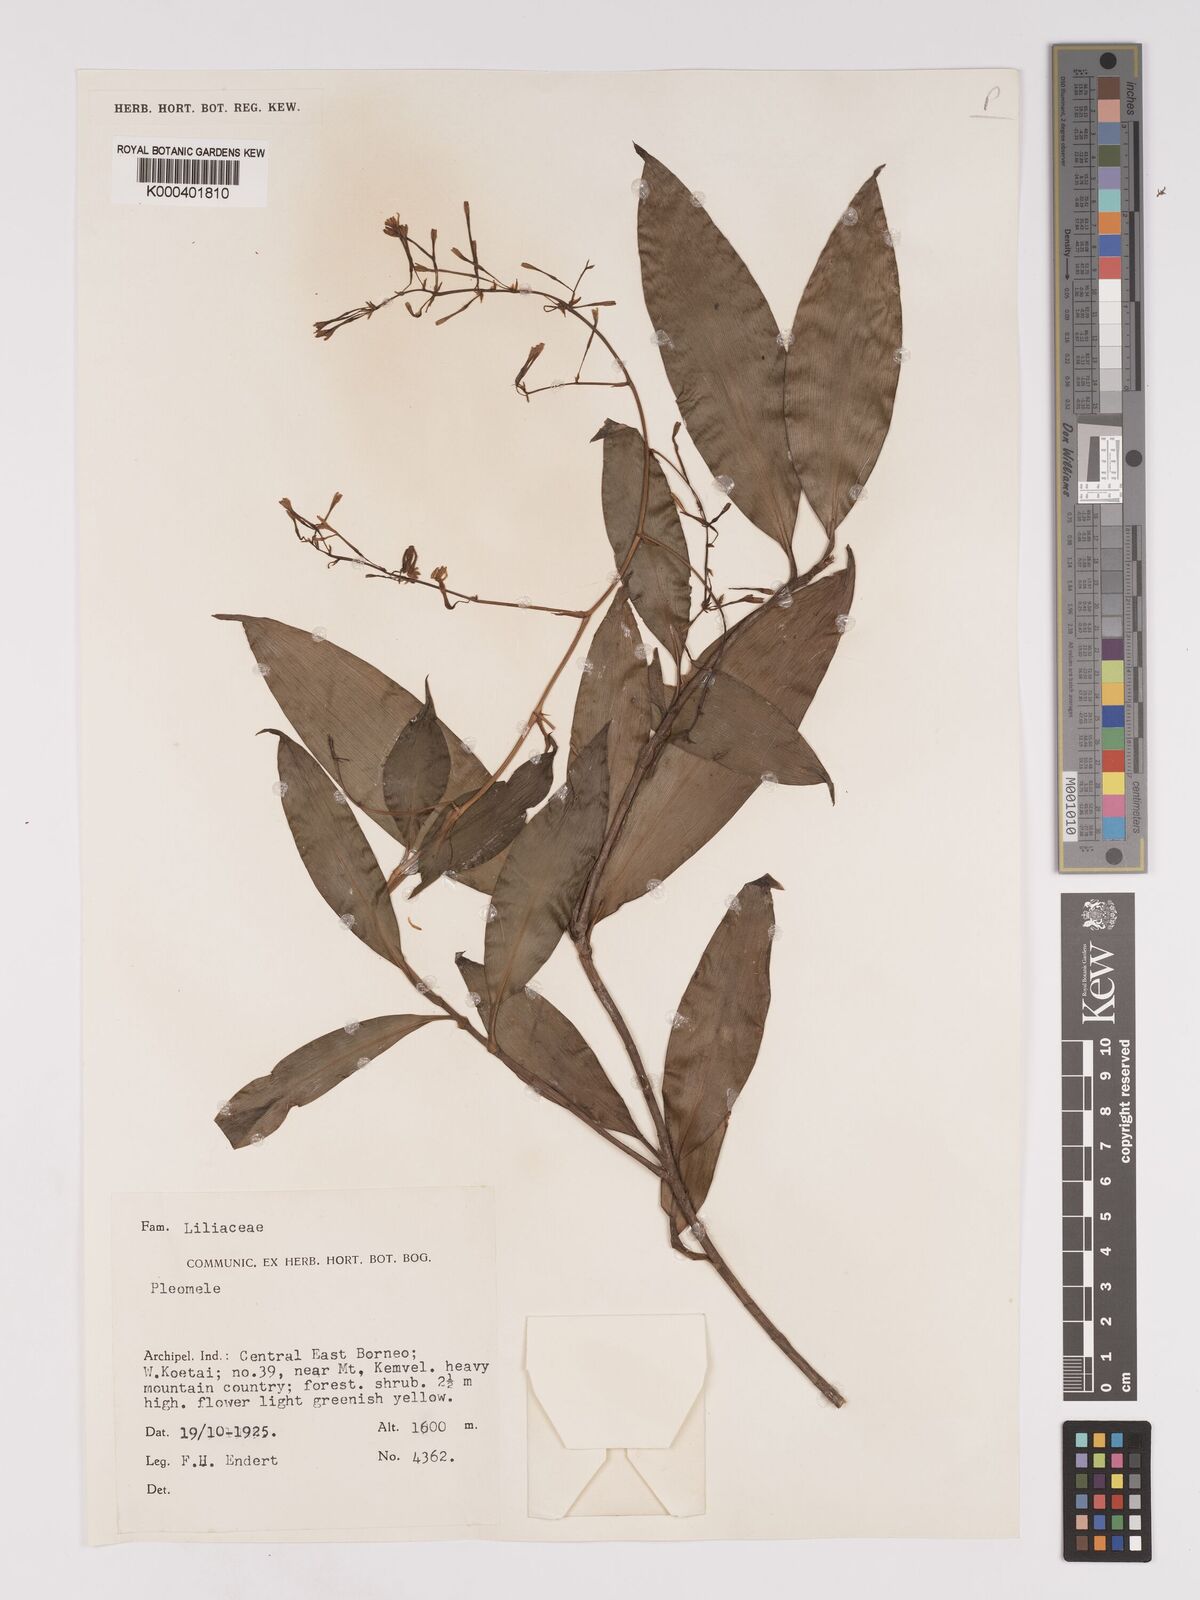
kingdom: Plantae
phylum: Tracheophyta
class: Liliopsida
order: Asparagales
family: Asparagaceae
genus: Dracaena
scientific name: Dracaena
